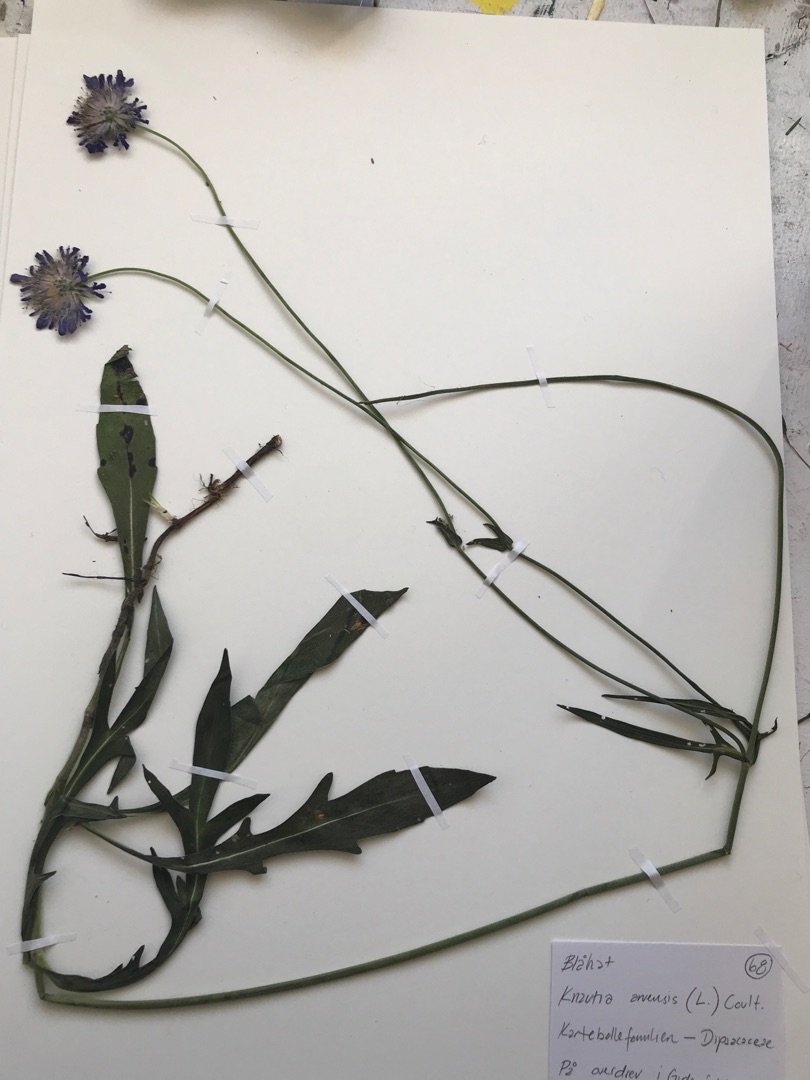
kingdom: Plantae
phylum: Tracheophyta
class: Magnoliopsida
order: Dipsacales
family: Caprifoliaceae
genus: Knautia
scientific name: Knautia arvensis
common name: Blåhat
